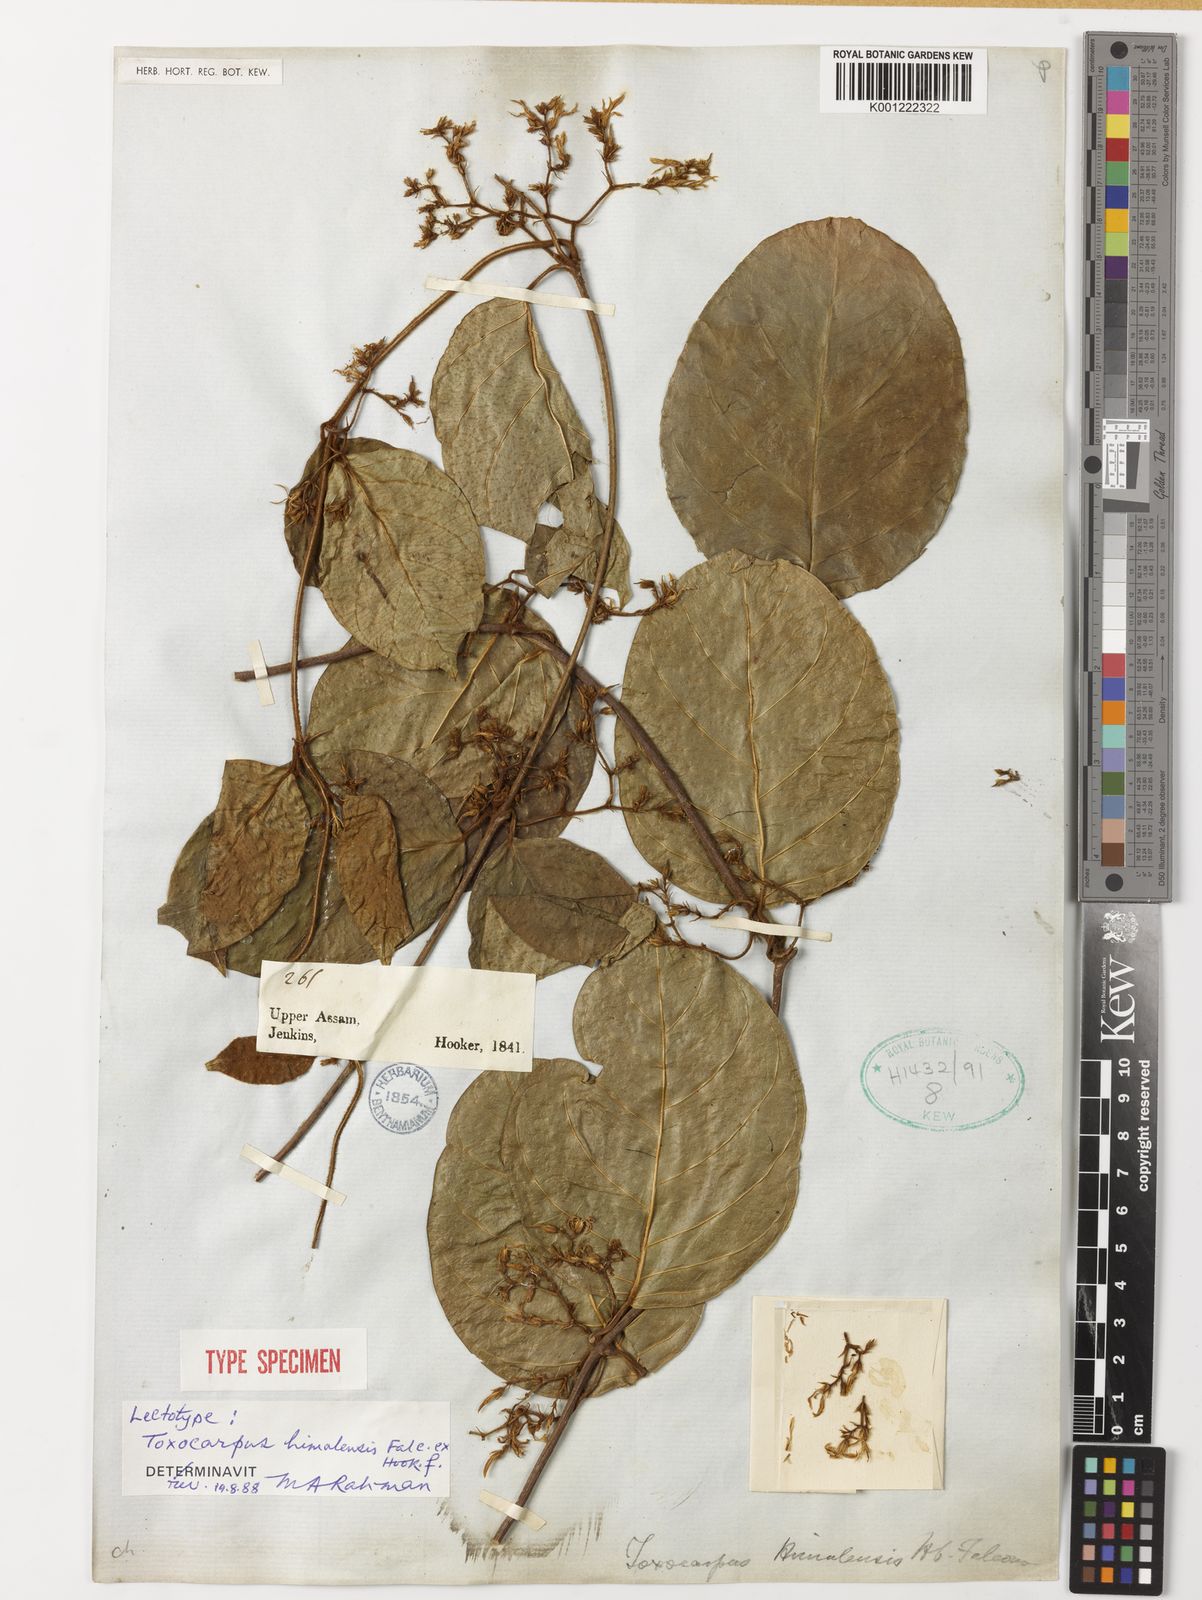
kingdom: Plantae
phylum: Tracheophyta
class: Magnoliopsida
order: Gentianales
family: Apocynaceae
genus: Toxocarpus
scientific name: Toxocarpus himalensis
